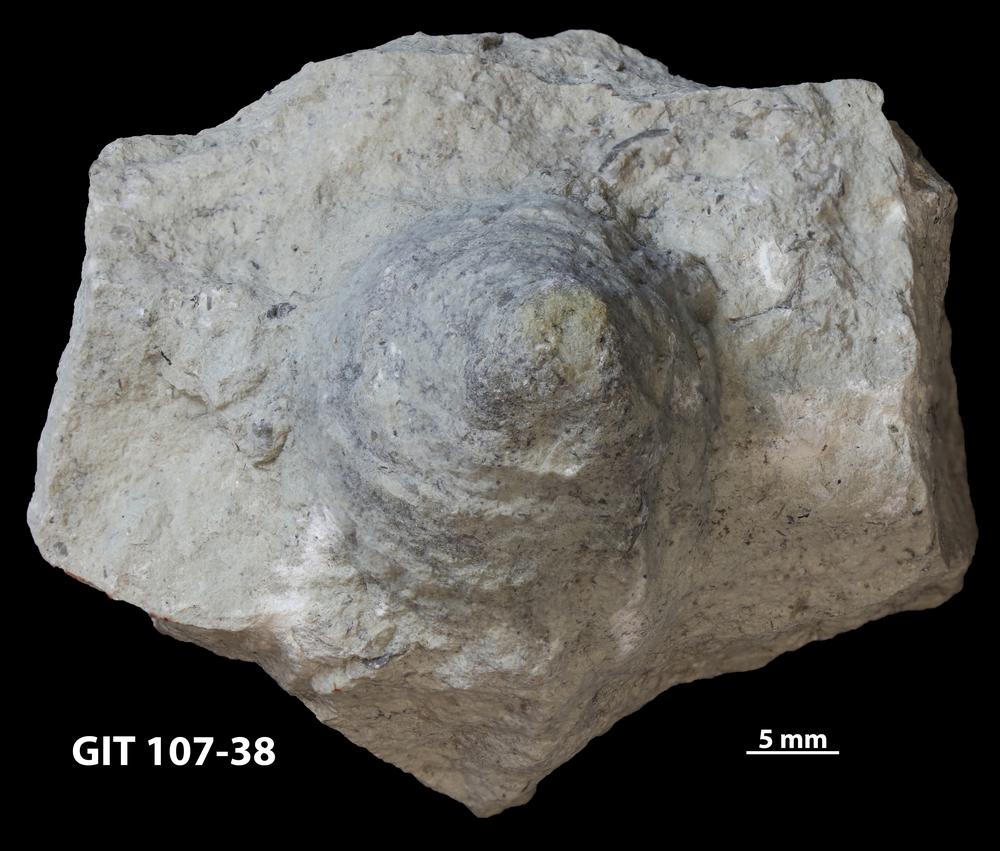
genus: Amphorichnus
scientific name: Amphorichnus
